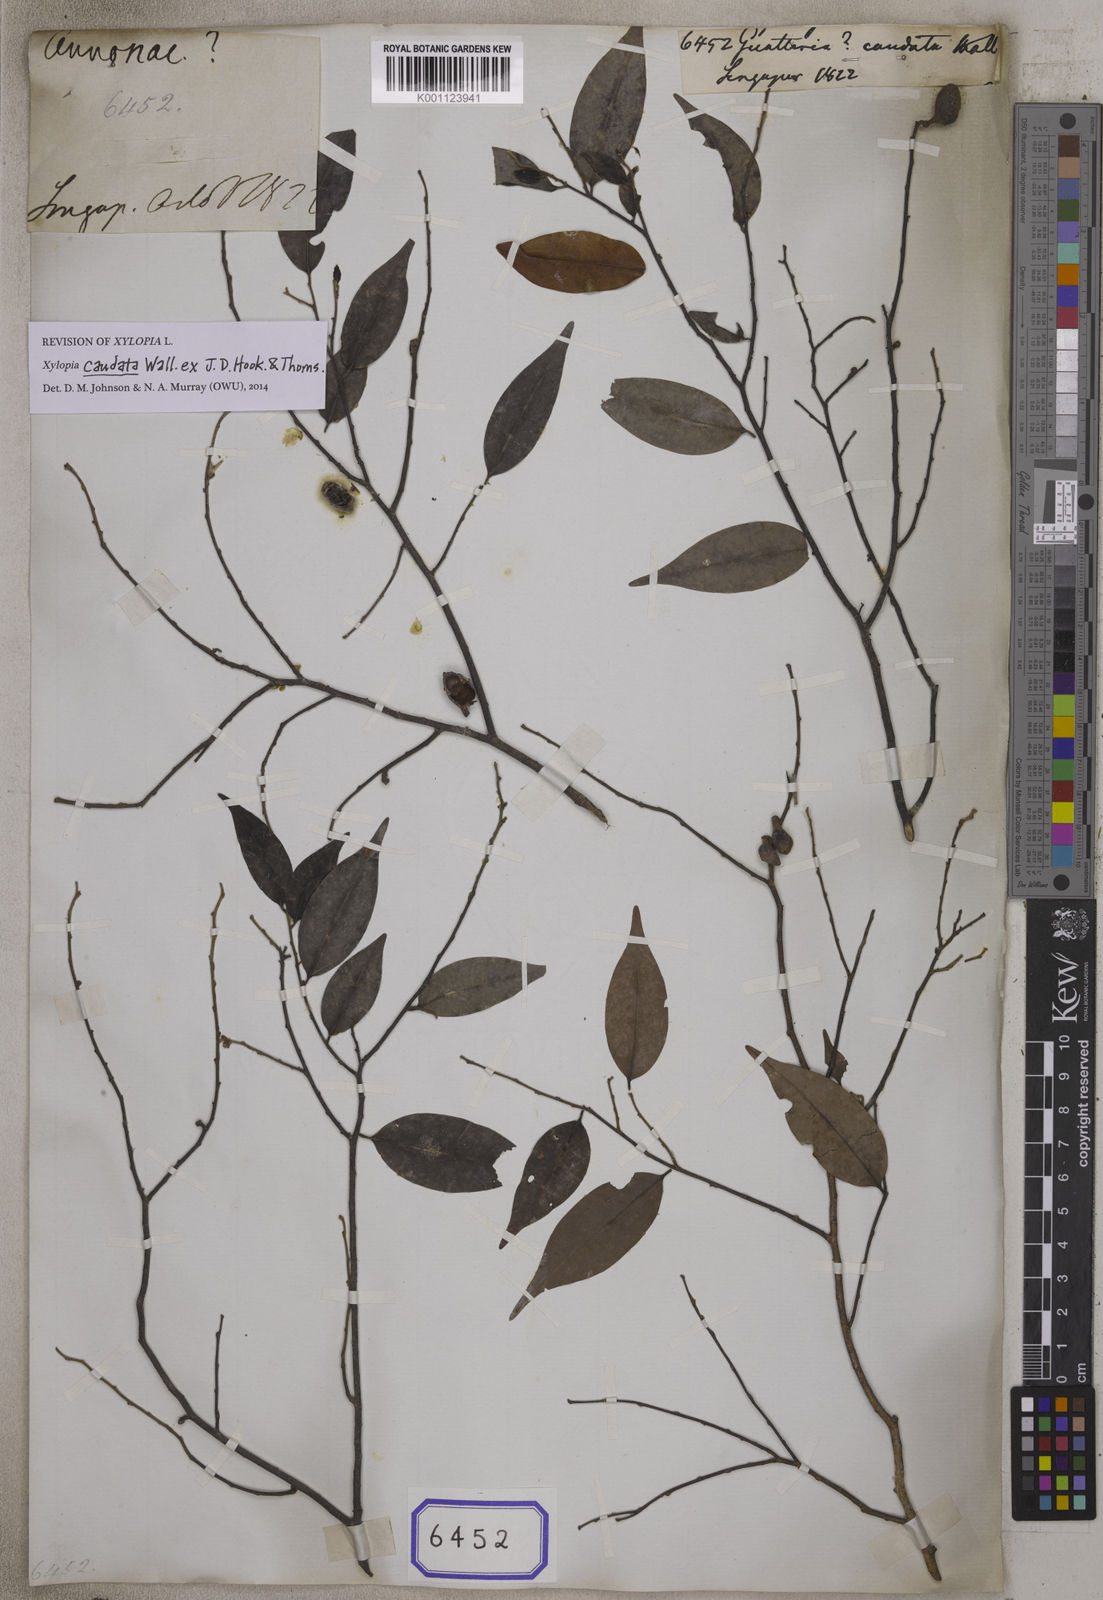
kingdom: Plantae
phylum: Tracheophyta
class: Magnoliopsida
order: Magnoliales
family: Annonaceae
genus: Xylopia
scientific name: Xylopia caudata
